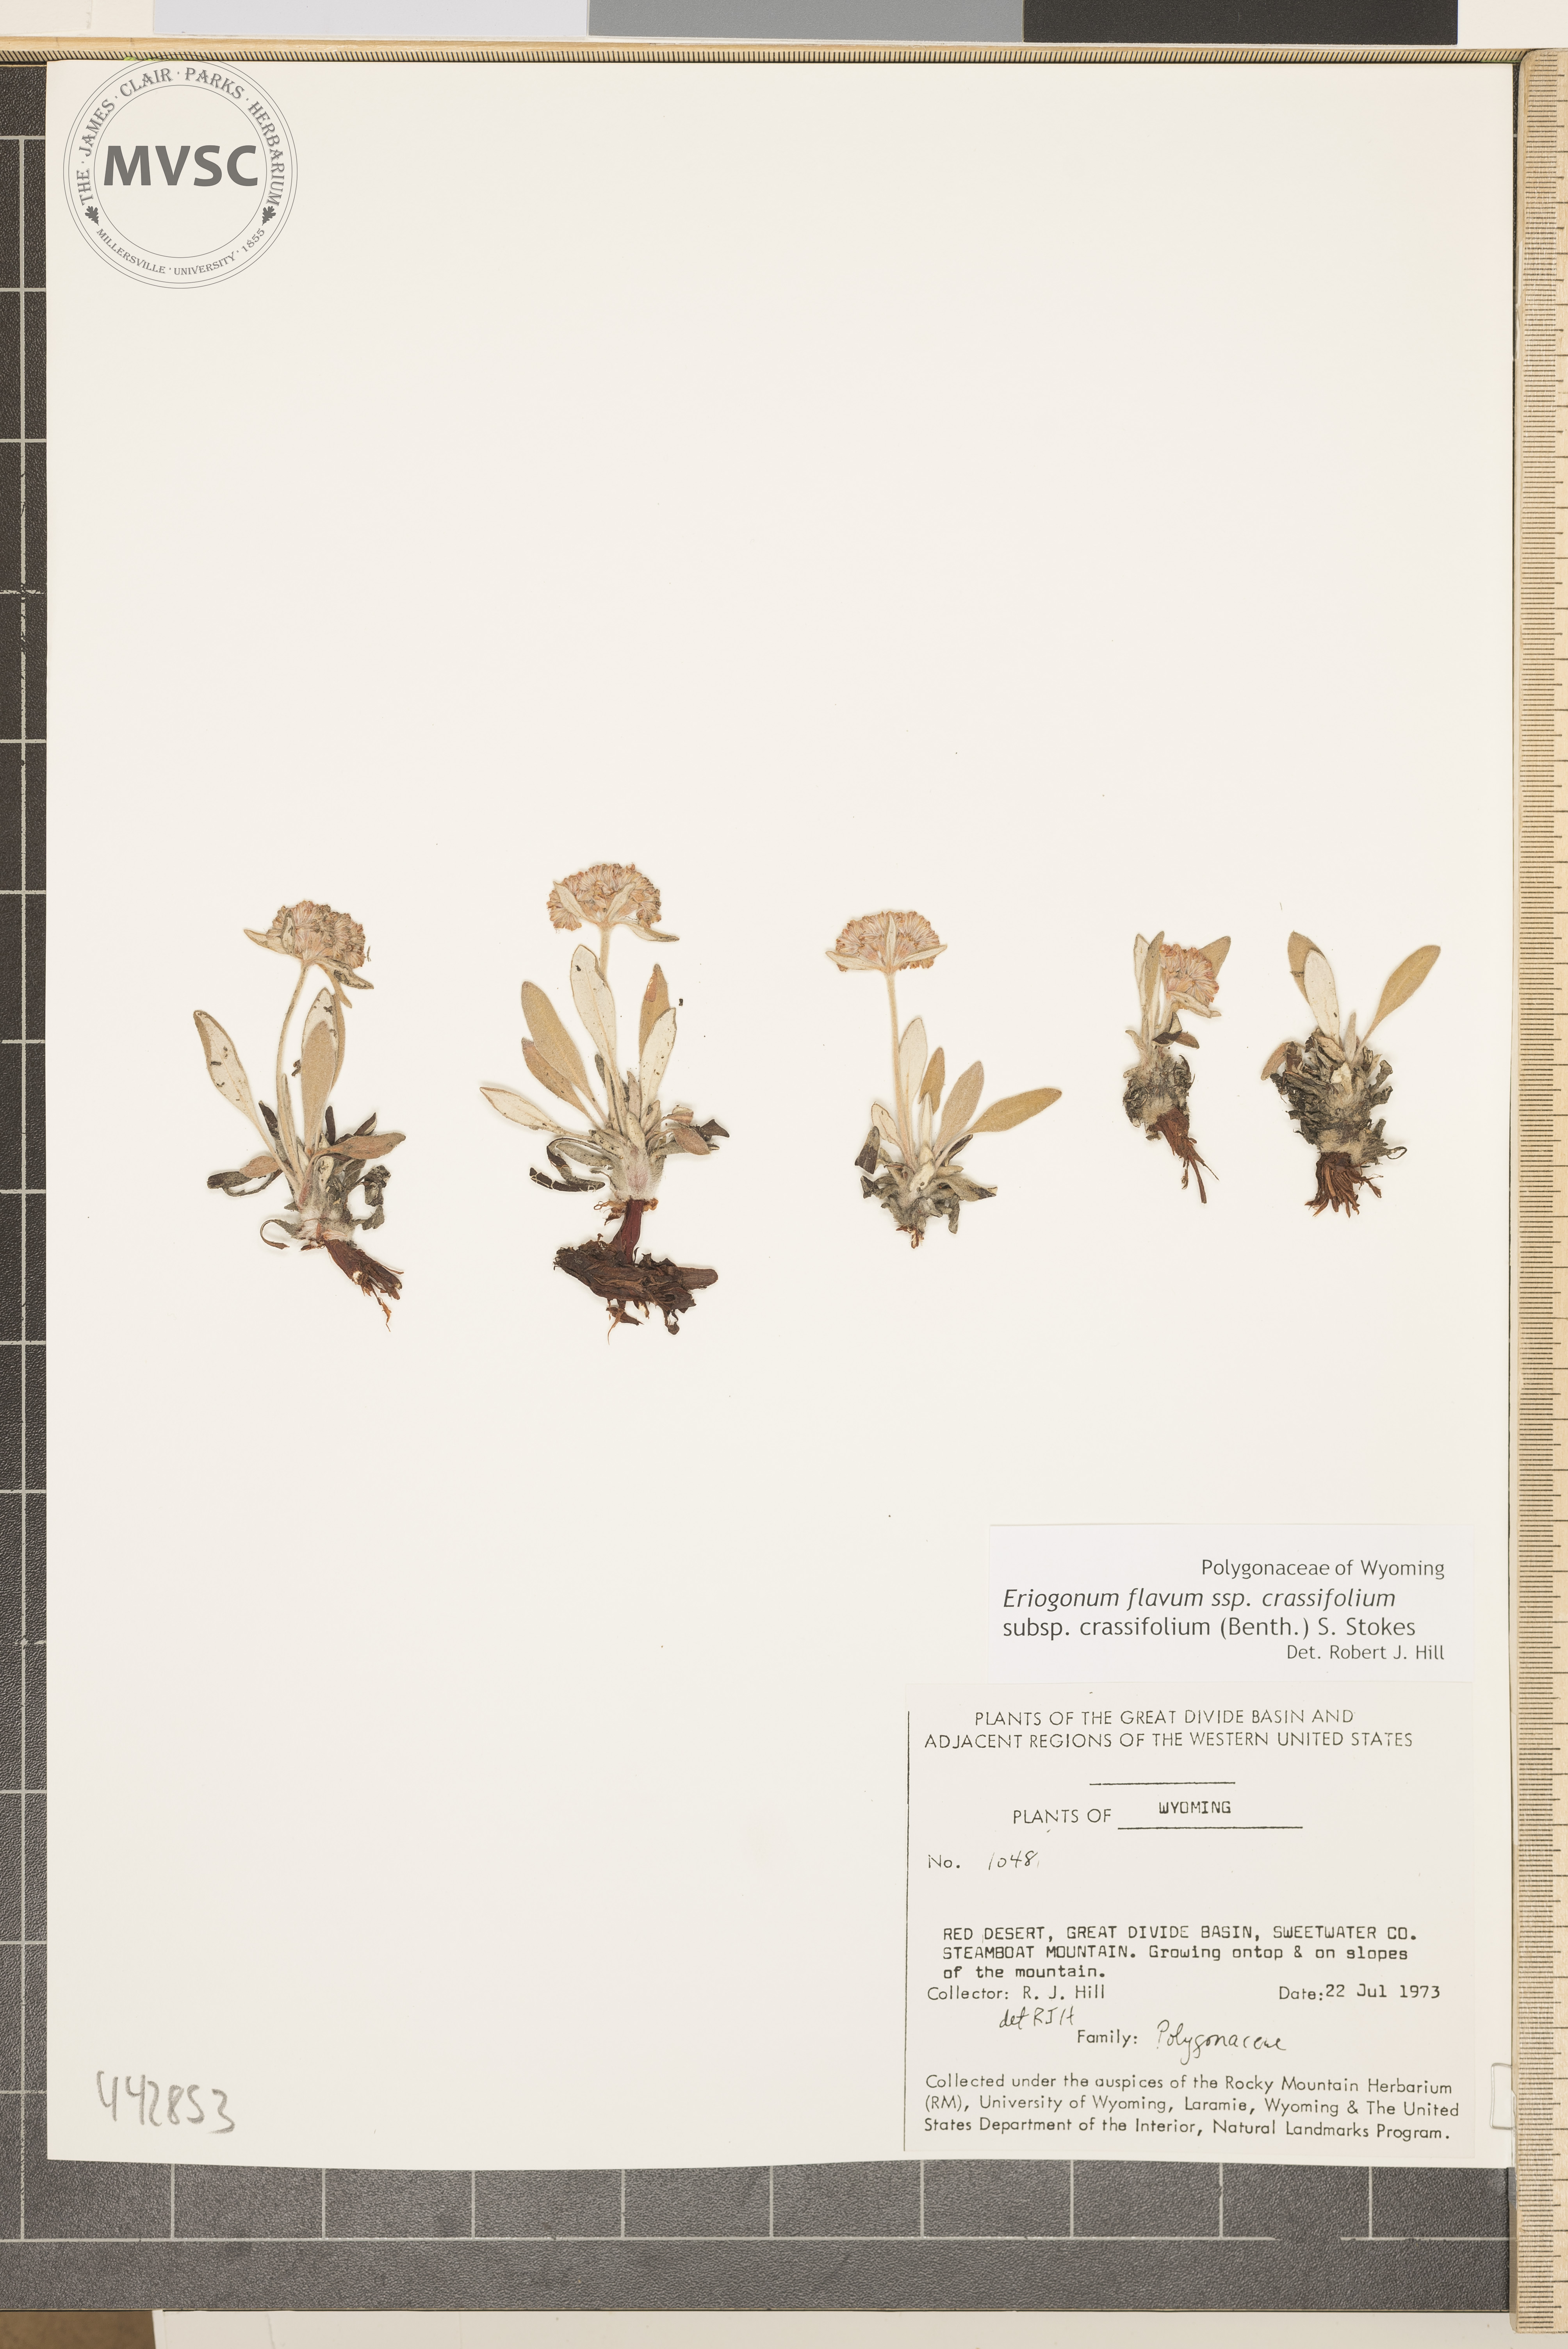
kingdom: Plantae
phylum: Tracheophyta
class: Magnoliopsida
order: Caryophyllales
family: Polygonaceae
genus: Eriogonum
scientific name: Eriogonum flavum
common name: Alpine golden wild buckwheat
